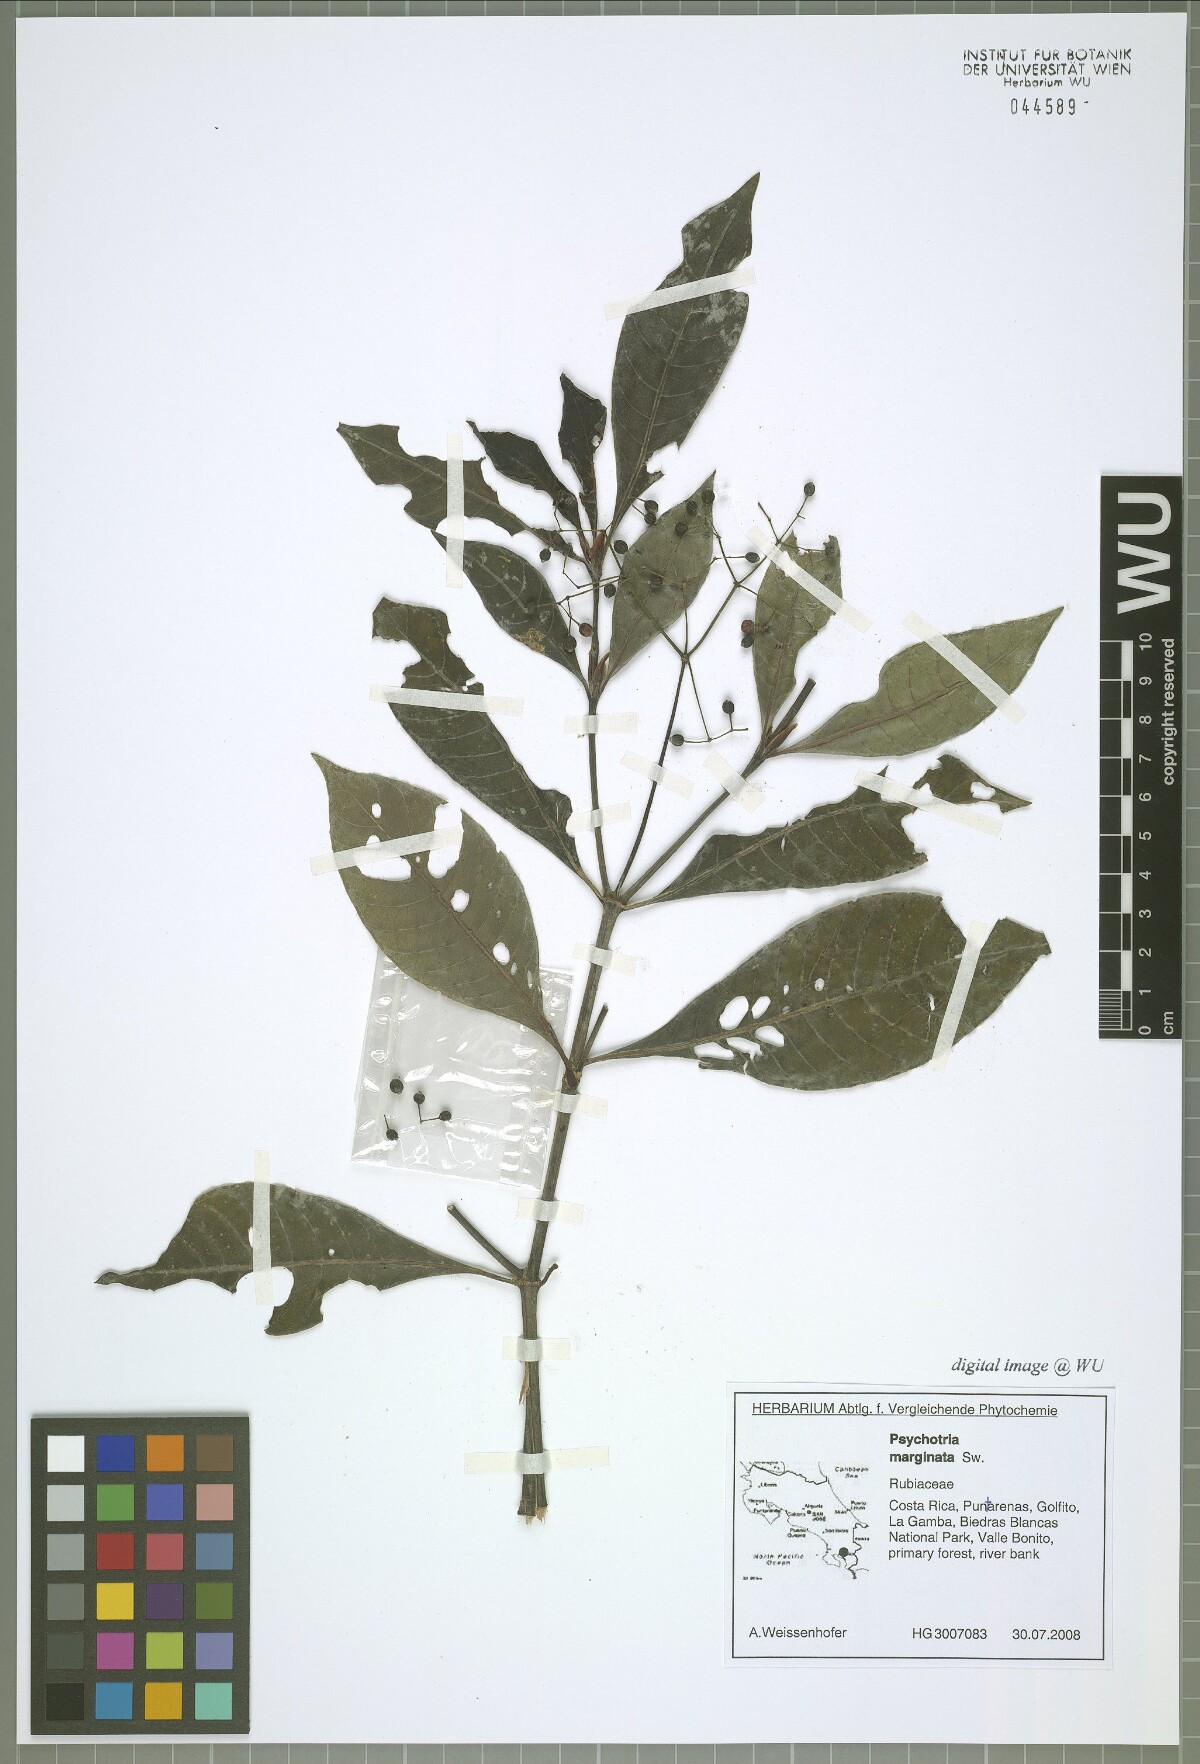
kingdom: Plantae
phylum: Tracheophyta
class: Magnoliopsida
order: Gentianales
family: Rubiaceae
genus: Psychotria
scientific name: Psychotria marginata
